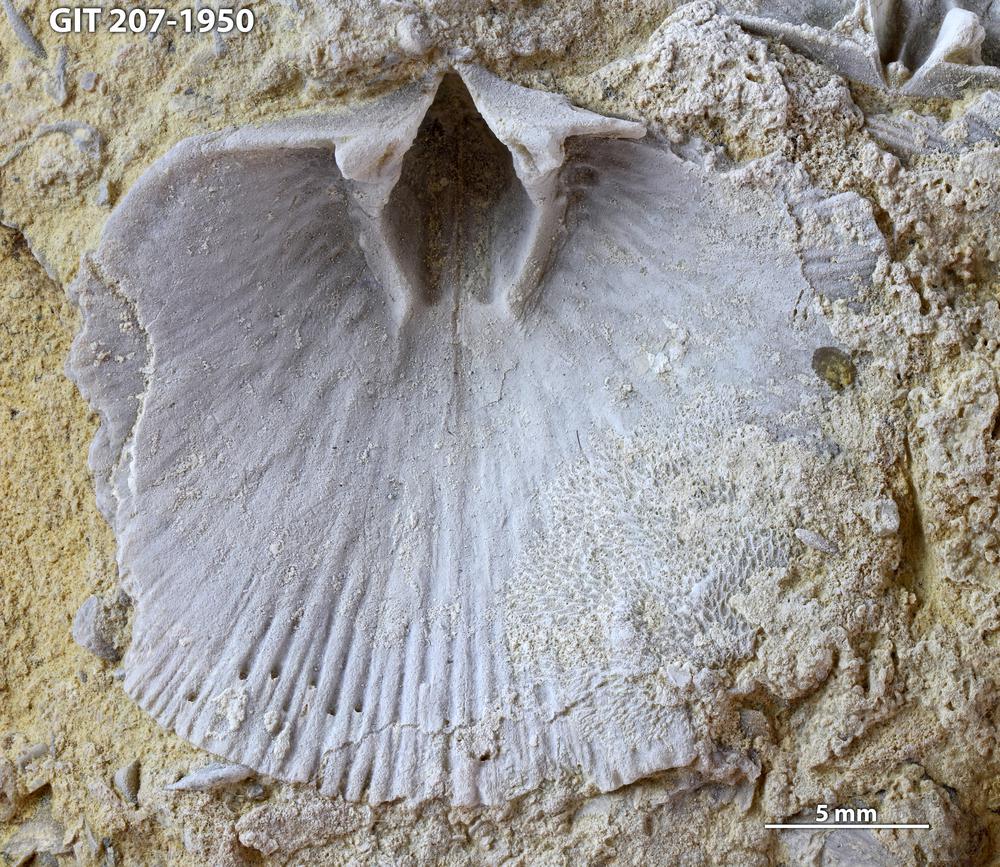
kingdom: Animalia
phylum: Brachiopoda
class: Rhynchonellata
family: Harknessellidae
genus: Horderleyella
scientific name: Horderleyella Dalmanella kegelensis
